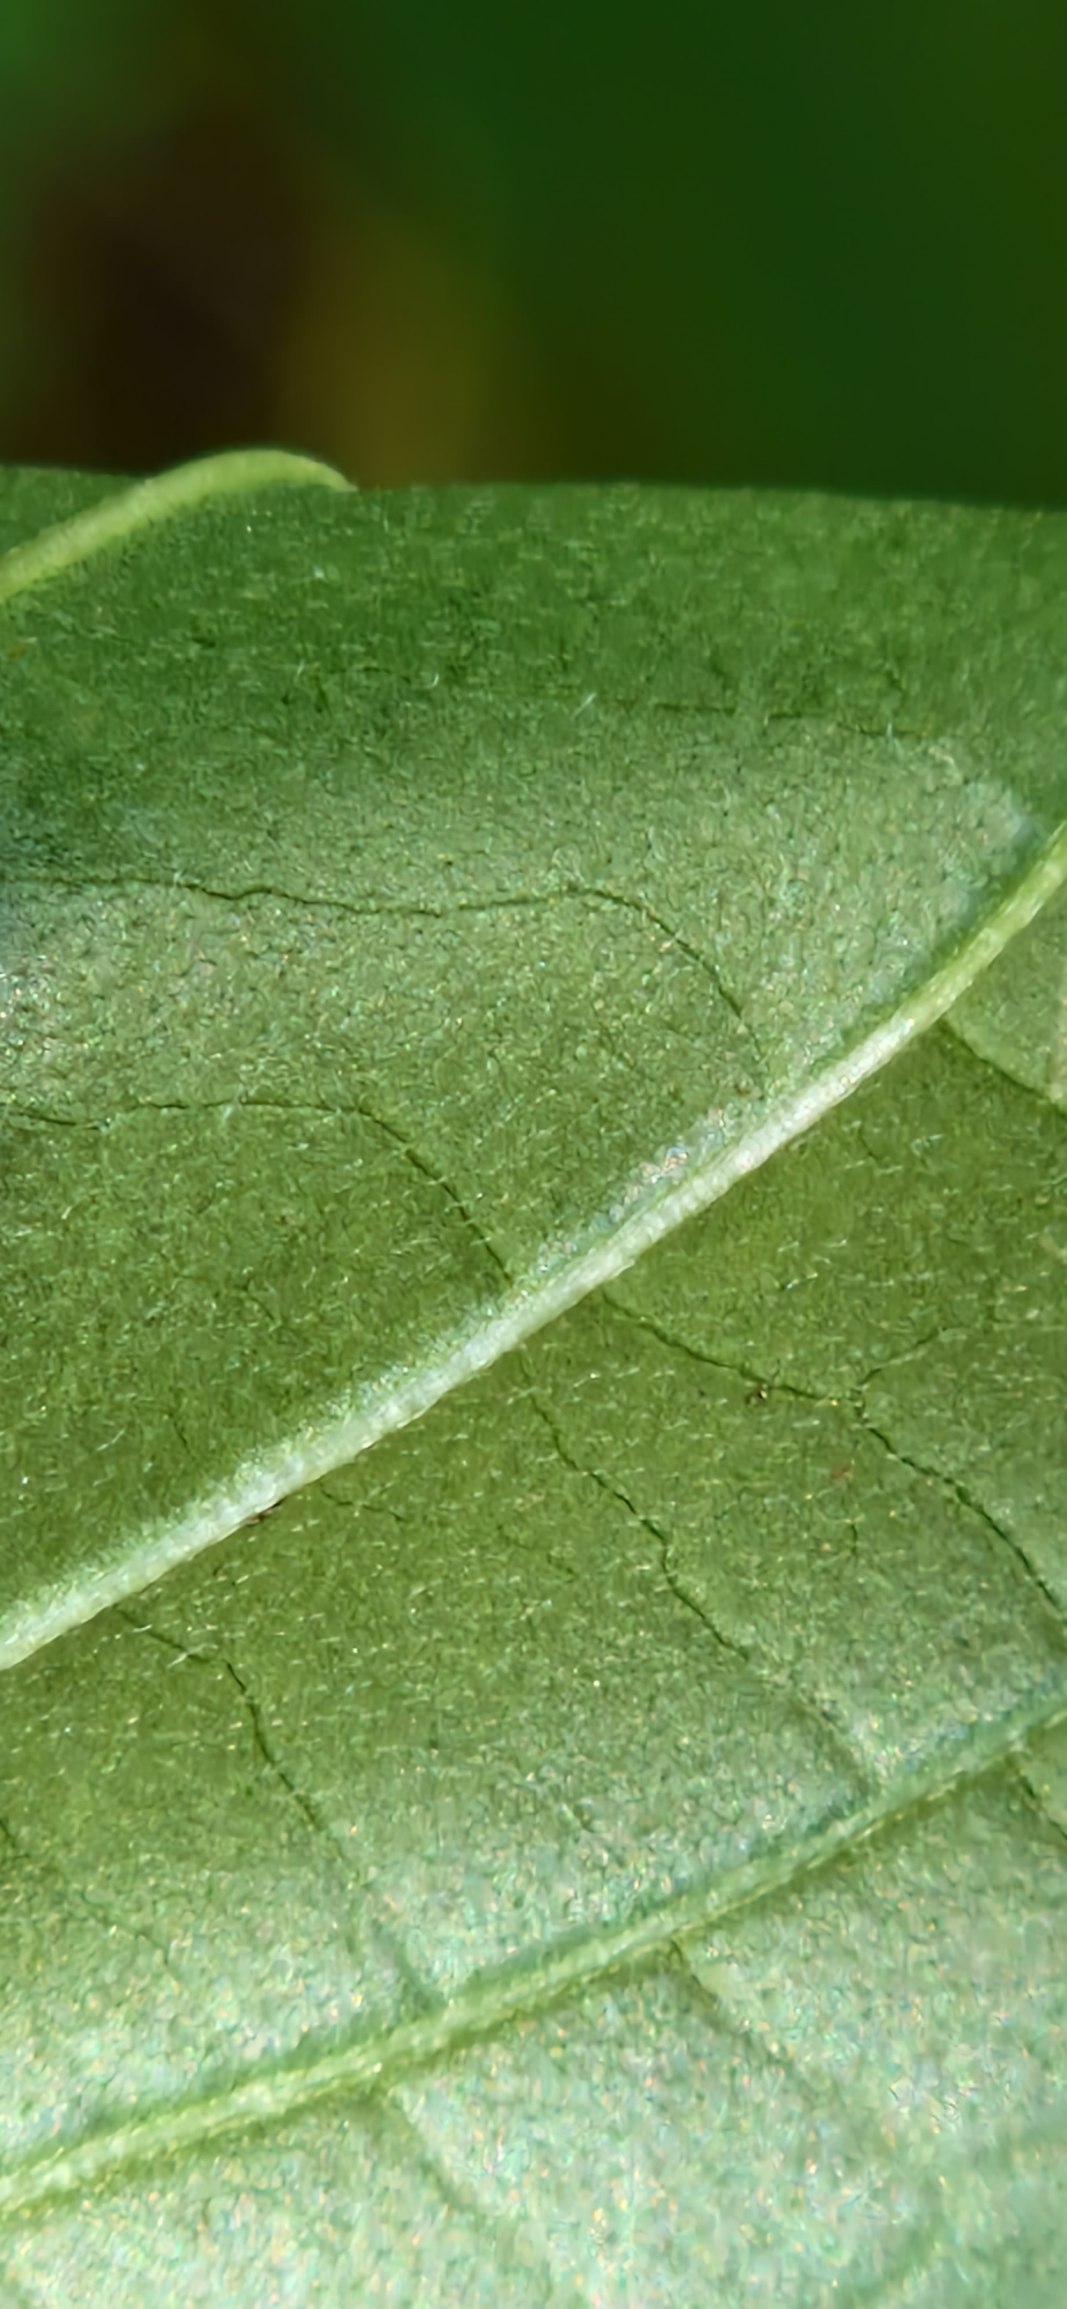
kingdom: Plantae
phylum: Tracheophyta
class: Magnoliopsida
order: Cornales
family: Cornaceae
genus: Cornus
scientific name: Cornus sanguinea
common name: Rød kornel
